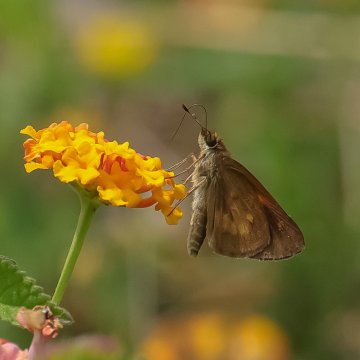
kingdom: Animalia
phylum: Arthropoda
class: Insecta
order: Lepidoptera
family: Hesperiidae
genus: Poanes
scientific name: Poanes viator
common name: Broad-winged Skipper
